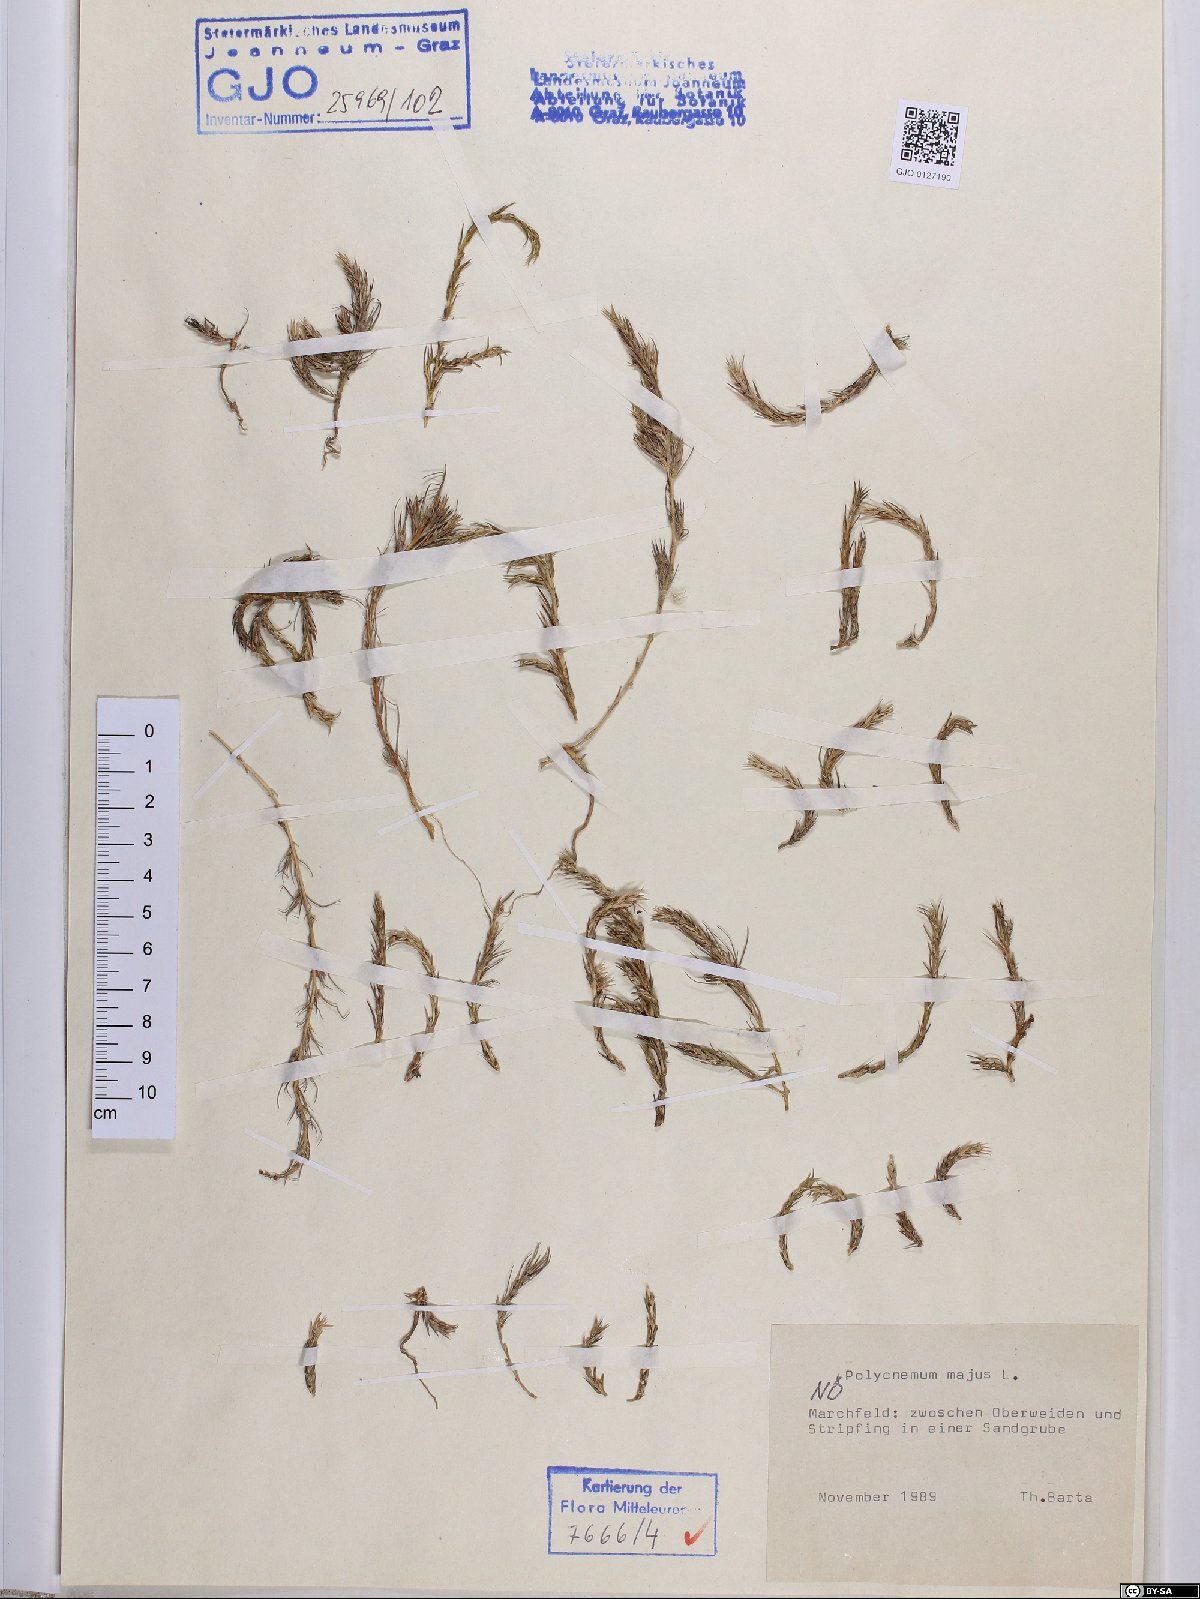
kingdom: Plantae
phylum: Tracheophyta
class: Magnoliopsida
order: Caryophyllales
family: Amaranthaceae
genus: Polycnemum
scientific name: Polycnemum majus
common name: Giant needleleaf
